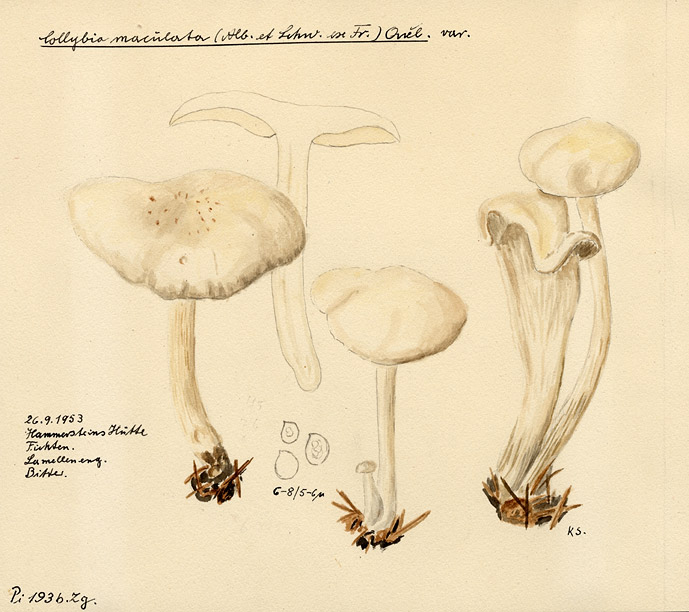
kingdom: Fungi
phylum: Basidiomycota
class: Agaricomycetes
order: Agaricales
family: Omphalotaceae
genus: Rhodocollybia
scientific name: Rhodocollybia maculata
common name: Spotted tough-shank
